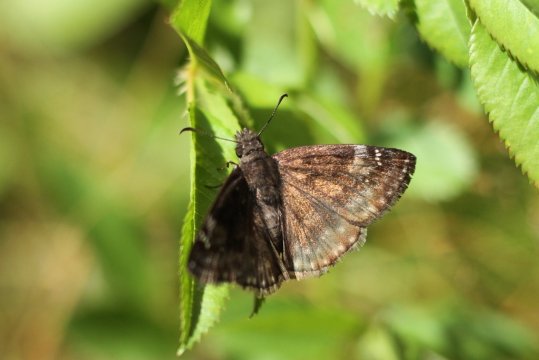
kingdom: Animalia
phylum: Arthropoda
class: Insecta
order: Lepidoptera
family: Hesperiidae
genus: Gesta
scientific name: Gesta
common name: Wild Indigo Duskywing
